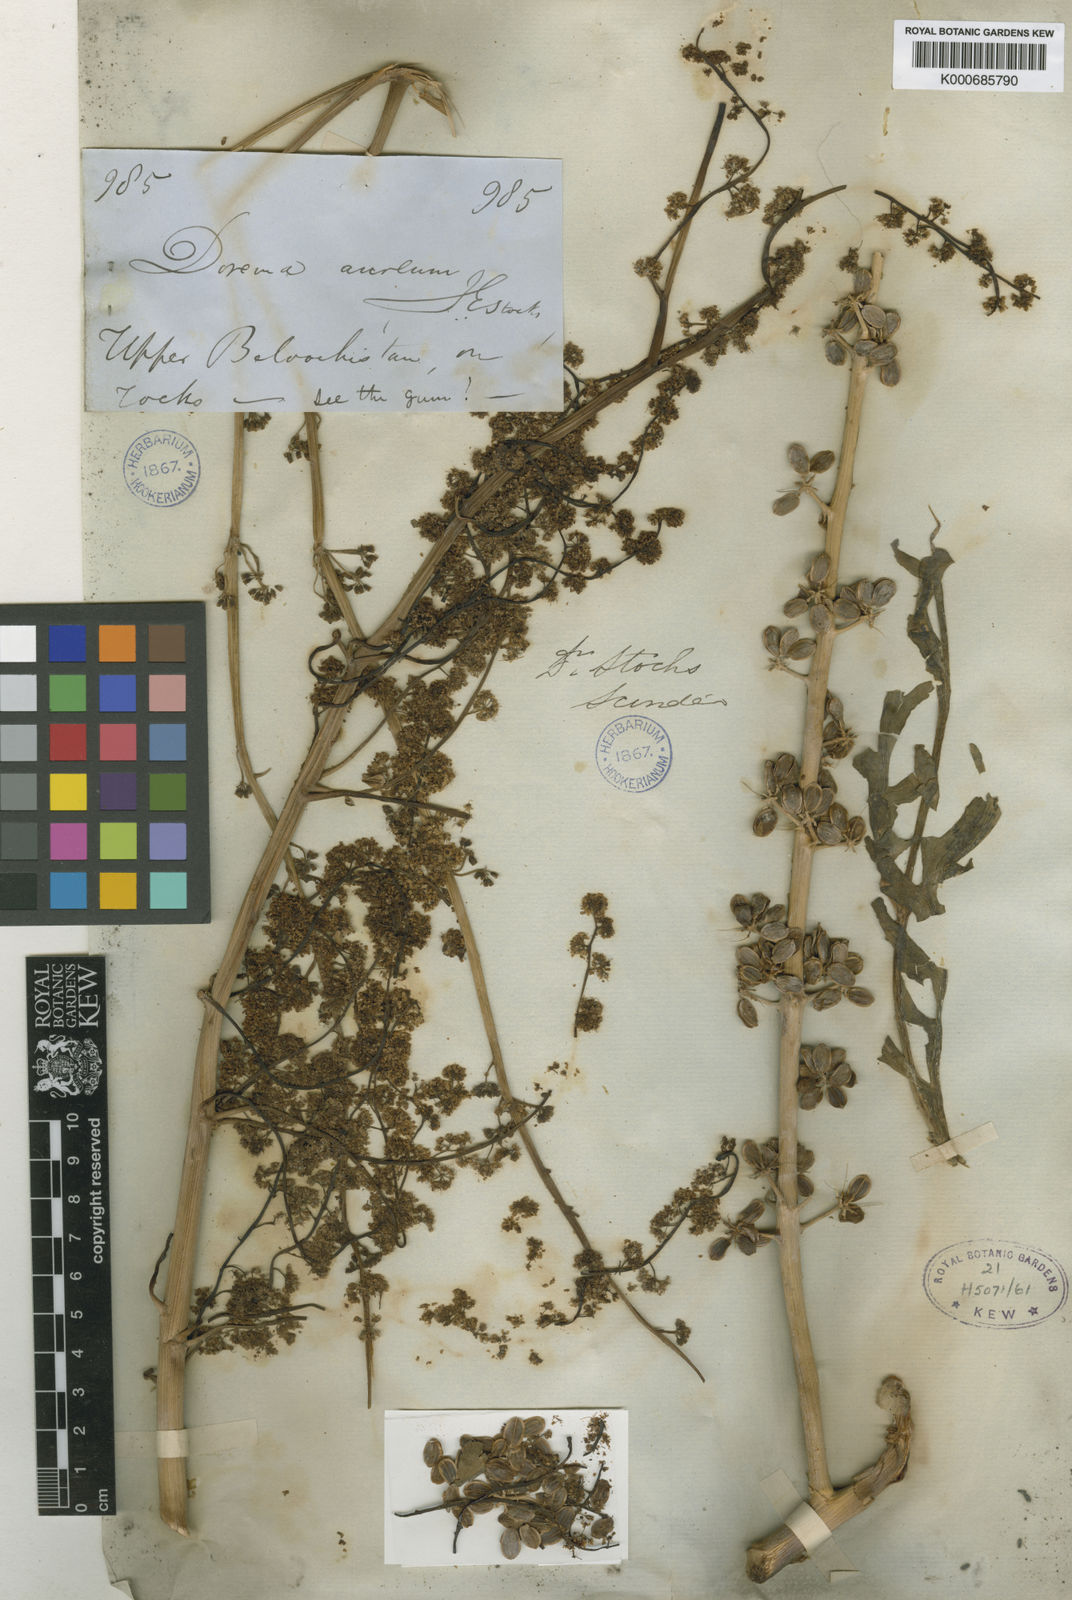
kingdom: Plantae
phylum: Tracheophyta
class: Magnoliopsida
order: Apiales
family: Apiaceae
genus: Ferula
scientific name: Ferula downieorum
